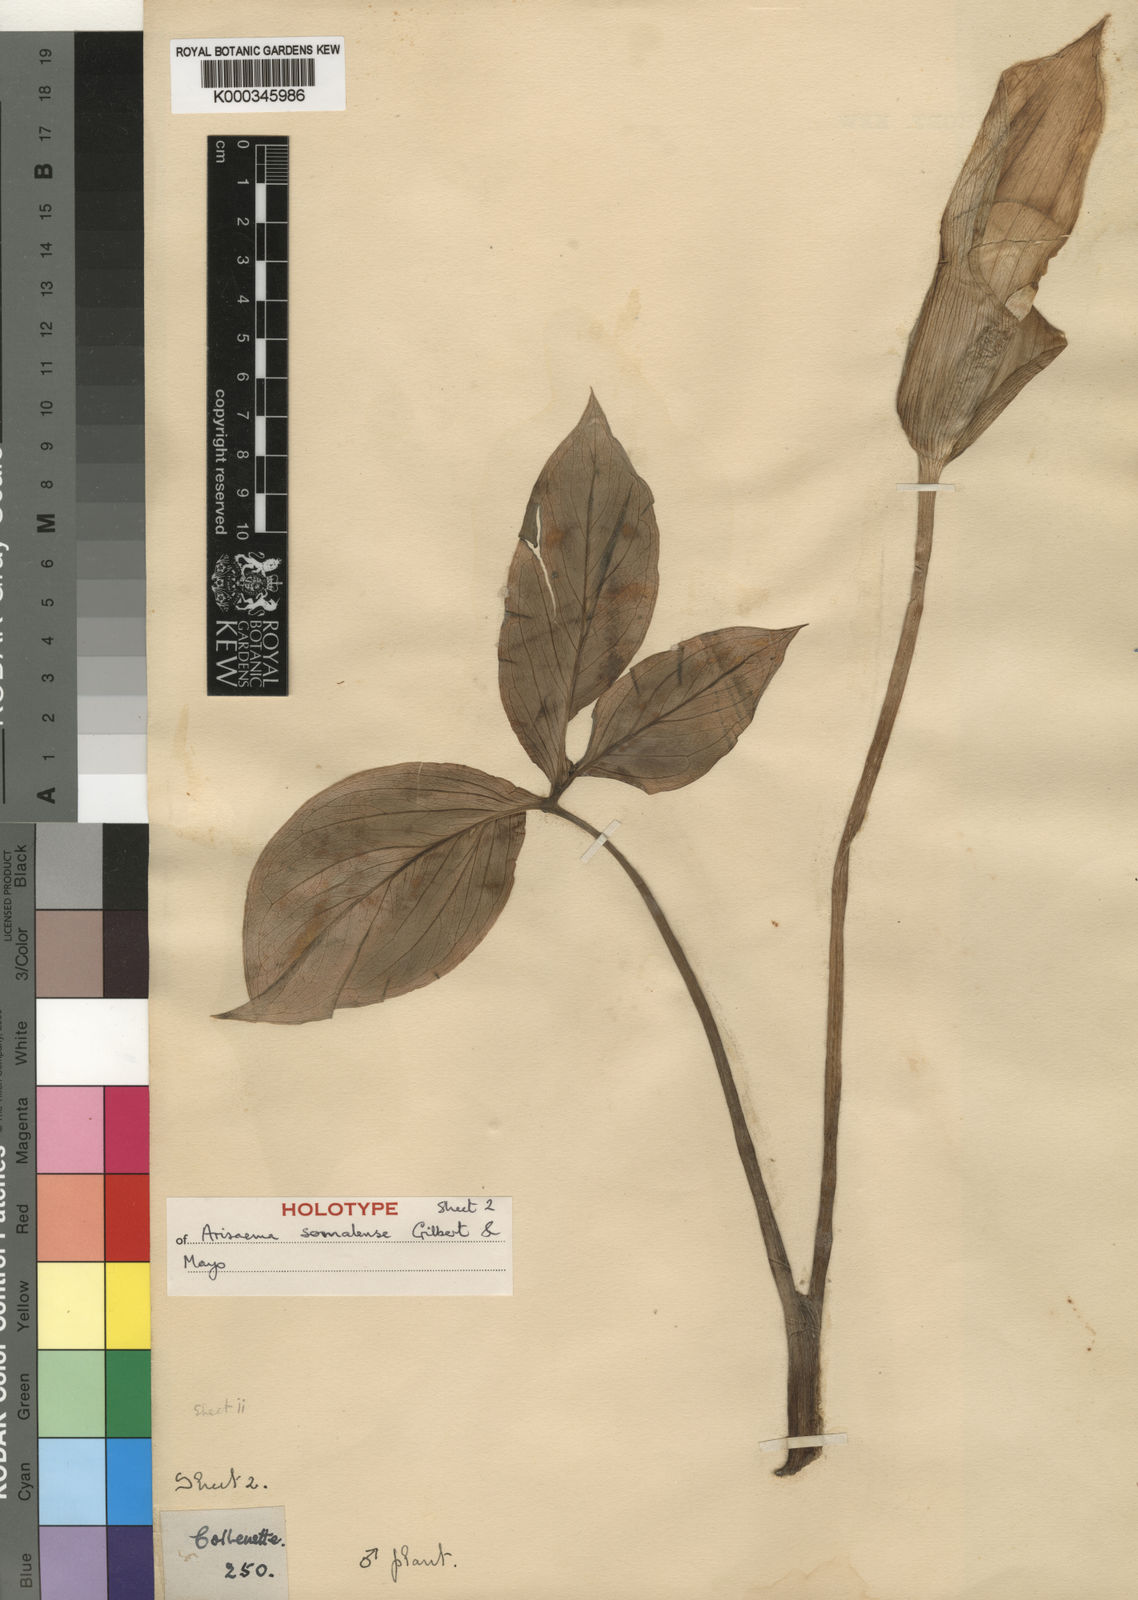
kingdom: Plantae
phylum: Tracheophyta
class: Liliopsida
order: Alismatales
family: Araceae
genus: Arisaema
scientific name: Arisaema somalense
